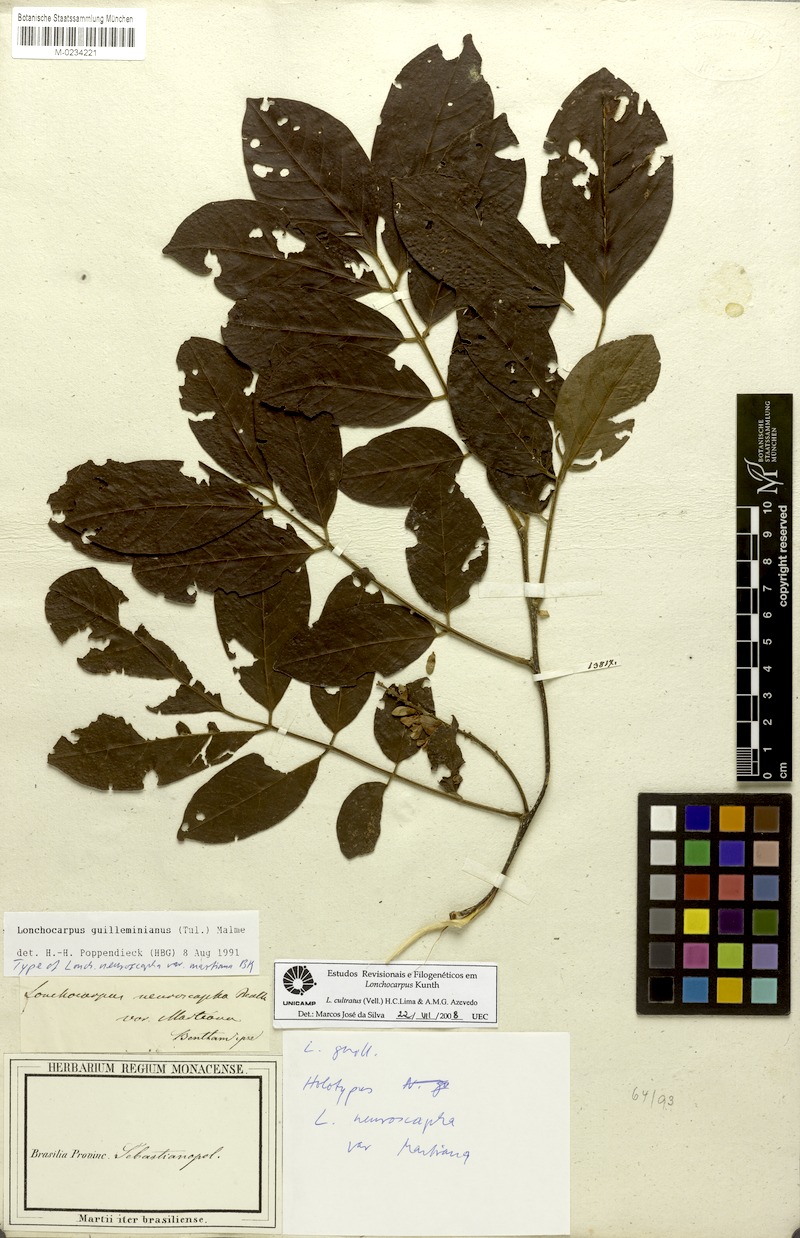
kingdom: Plantae
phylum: Tracheophyta
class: Magnoliopsida
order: Fabales
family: Fabaceae
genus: Lonchocarpus
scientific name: Lonchocarpus cultratus
